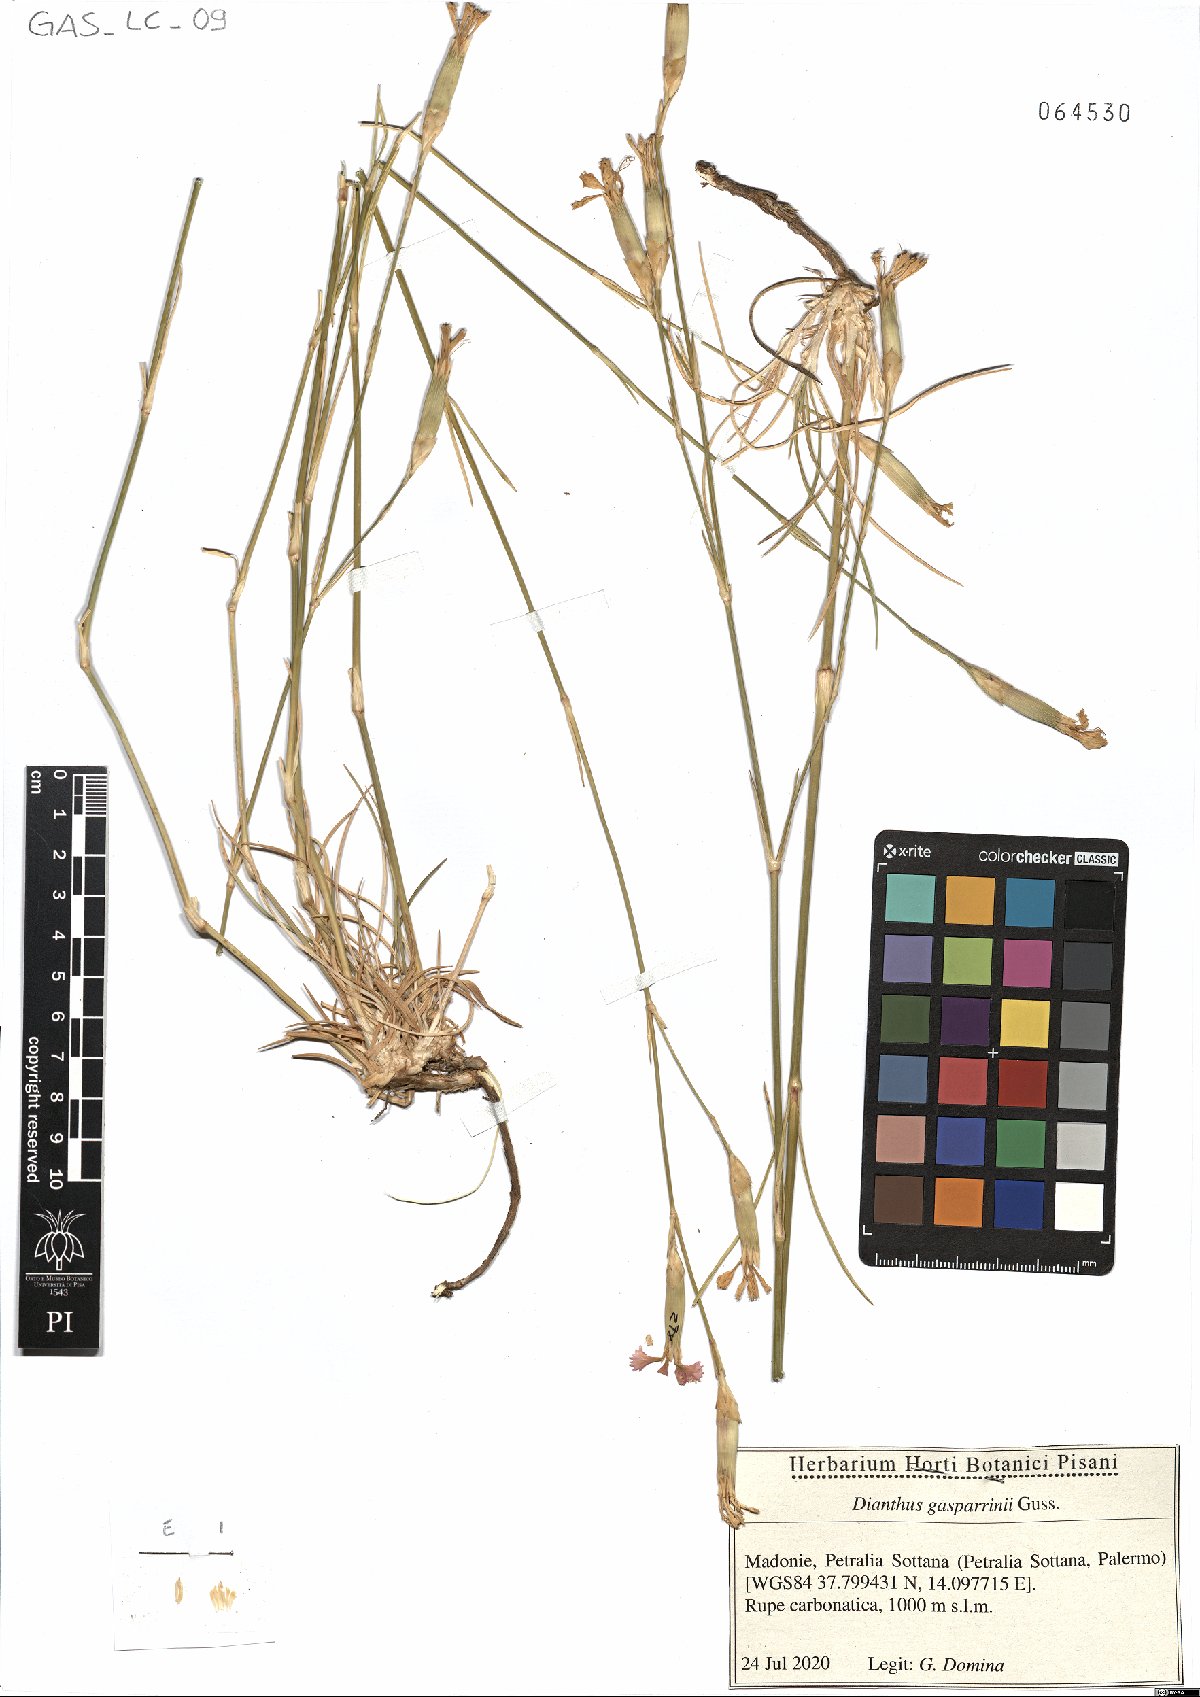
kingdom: Plantae
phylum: Tracheophyta
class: Magnoliopsida
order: Caryophyllales
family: Caryophyllaceae
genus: Dianthus
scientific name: Dianthus gasparrinii
